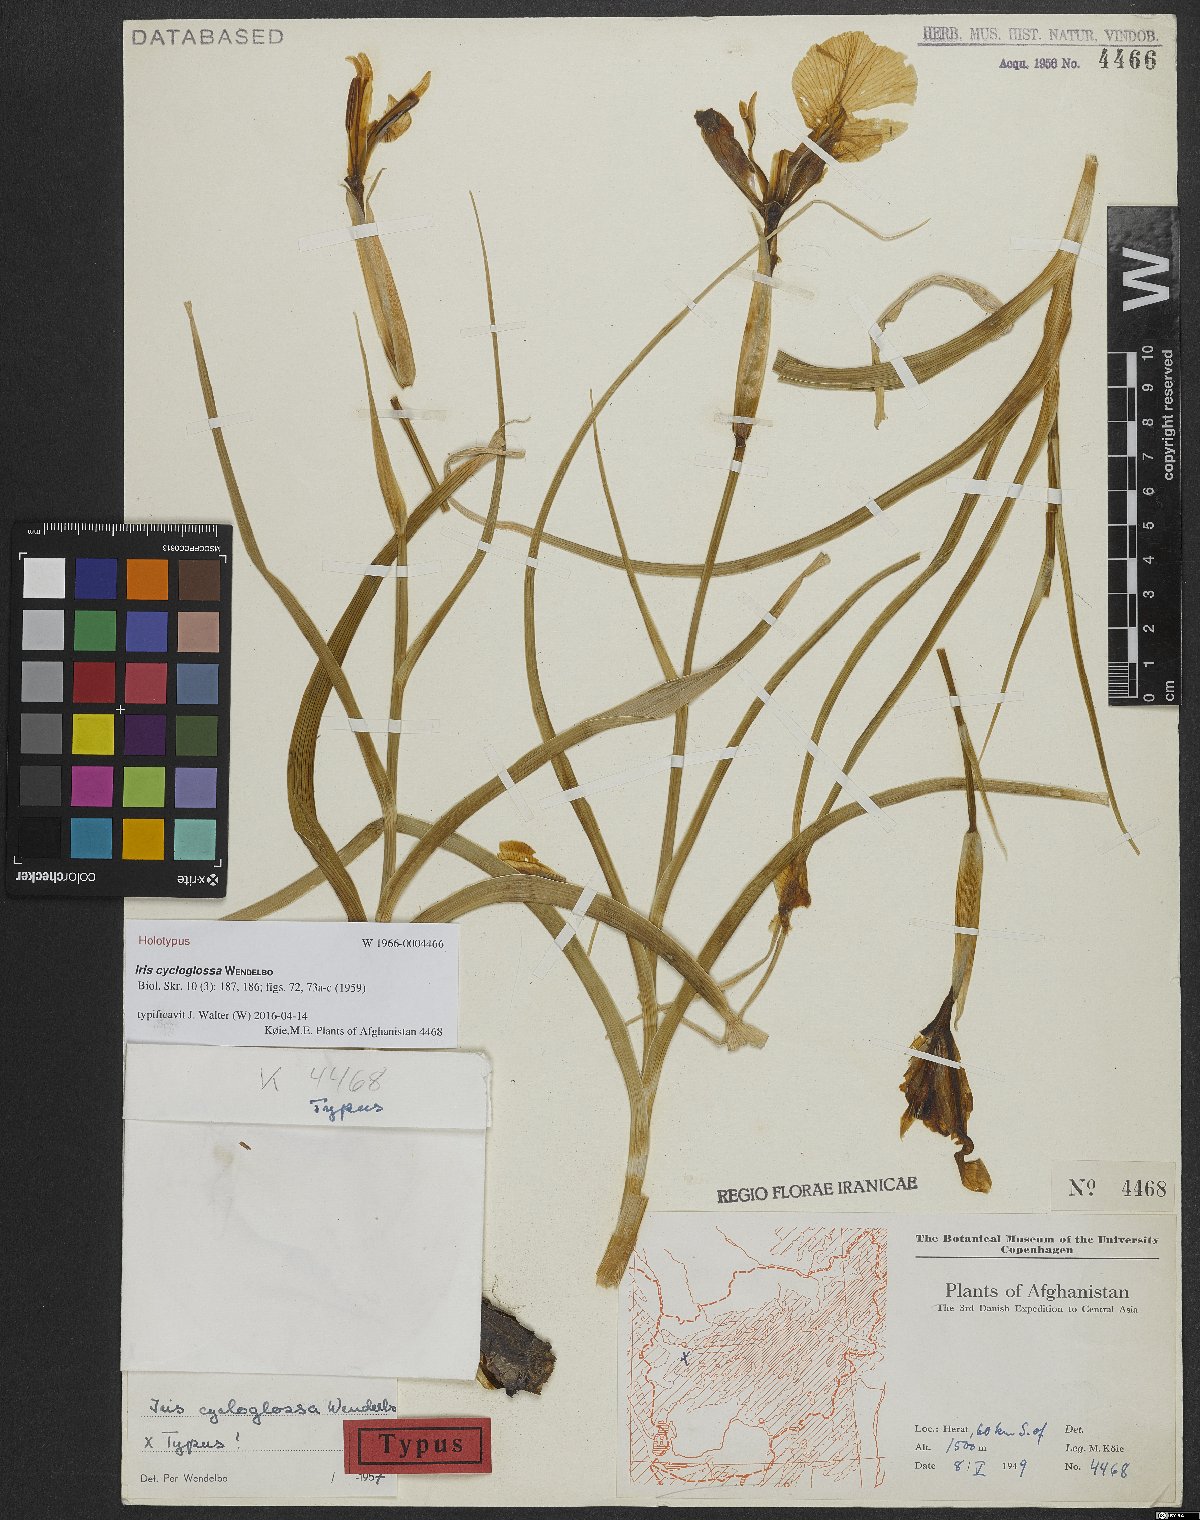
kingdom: Plantae
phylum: Tracheophyta
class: Liliopsida
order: Asparagales
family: Iridaceae
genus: Iris
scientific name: Iris cycloglossa
